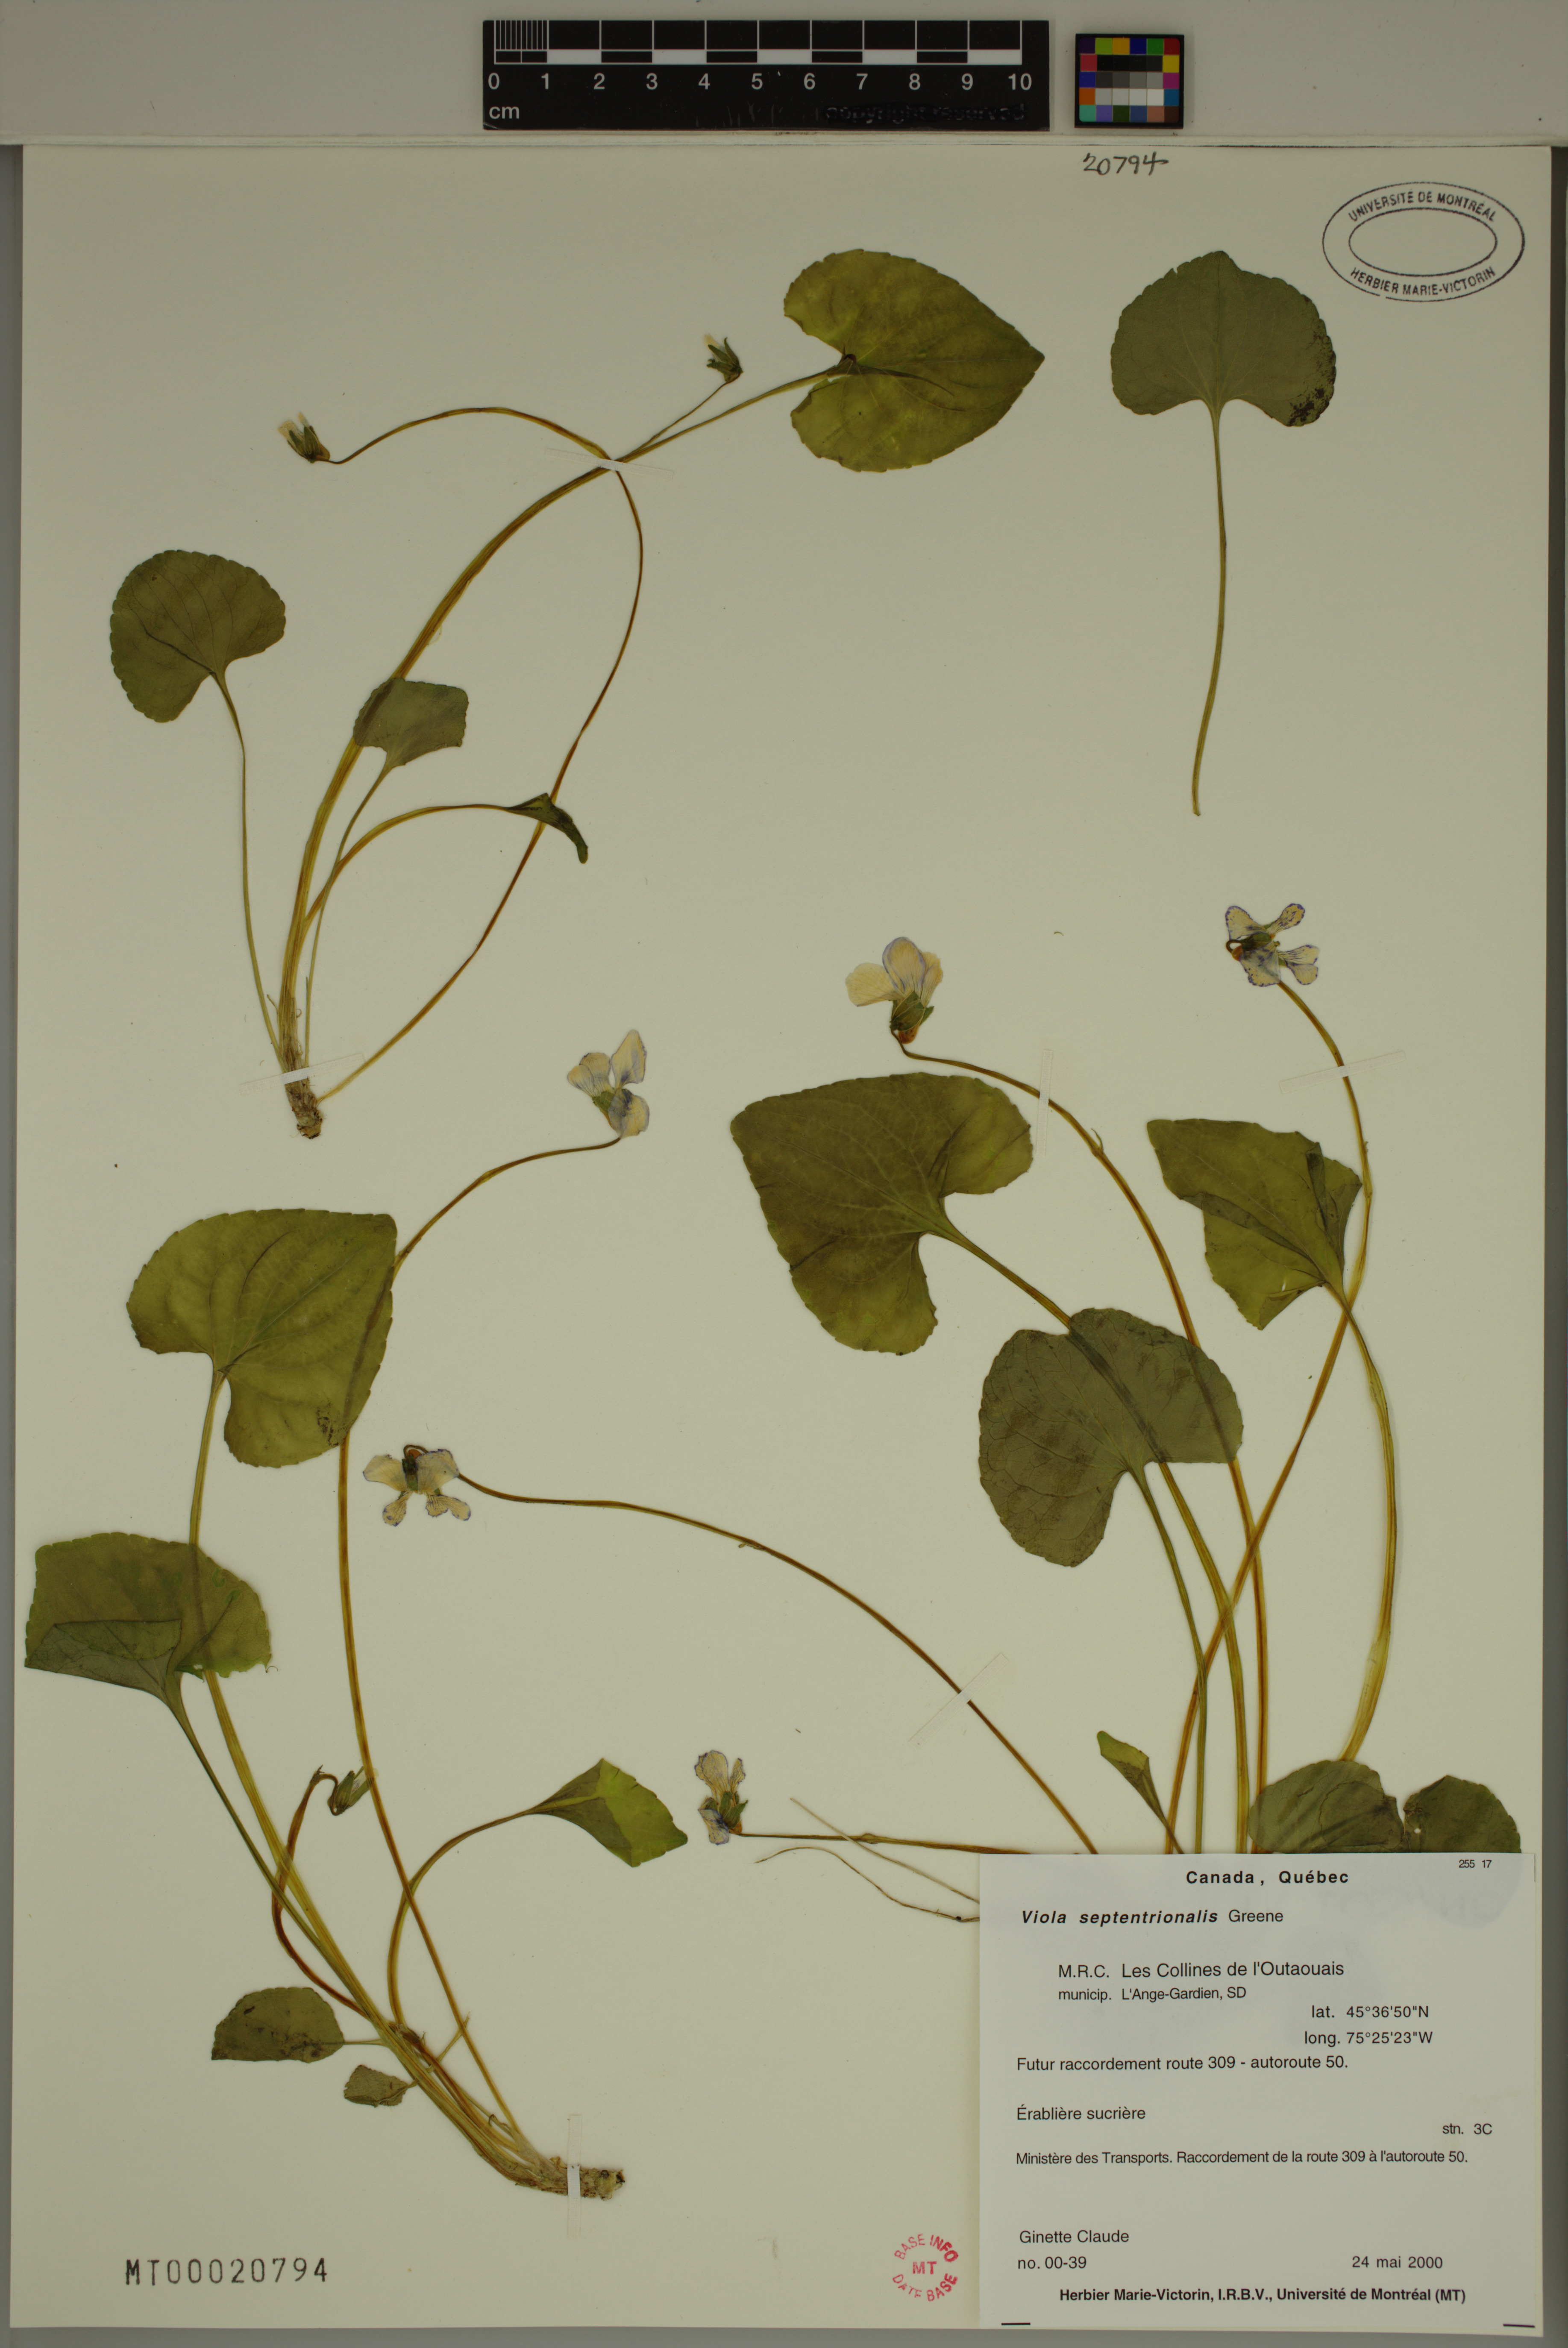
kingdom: Plantae
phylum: Tracheophyta
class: Magnoliopsida
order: Malpighiales
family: Violaceae
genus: Viola
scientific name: Viola sororia
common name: Dooryard violet
